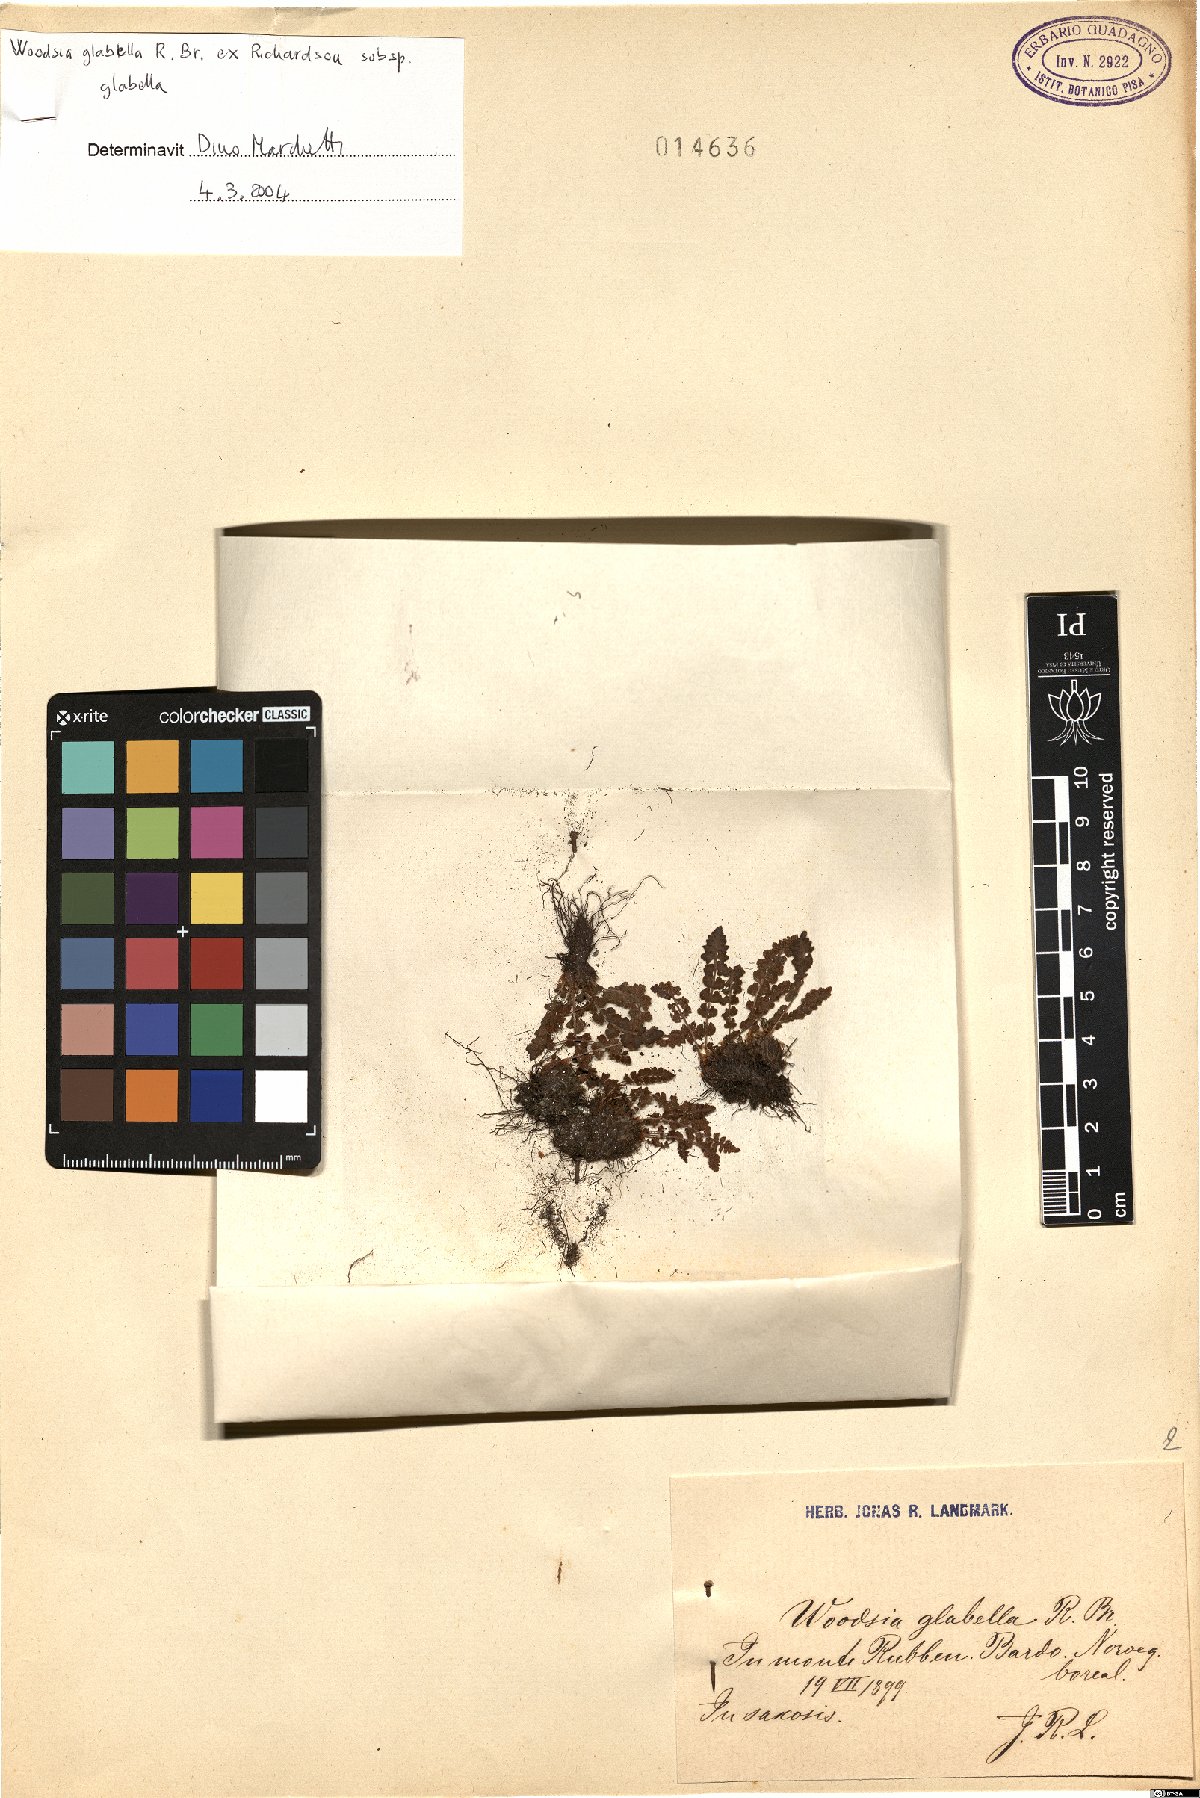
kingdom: Plantae
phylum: Tracheophyta
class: Polypodiopsida
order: Polypodiales
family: Woodsiaceae
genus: Woodsia
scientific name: Woodsia glabella
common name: Smooth woodsia
